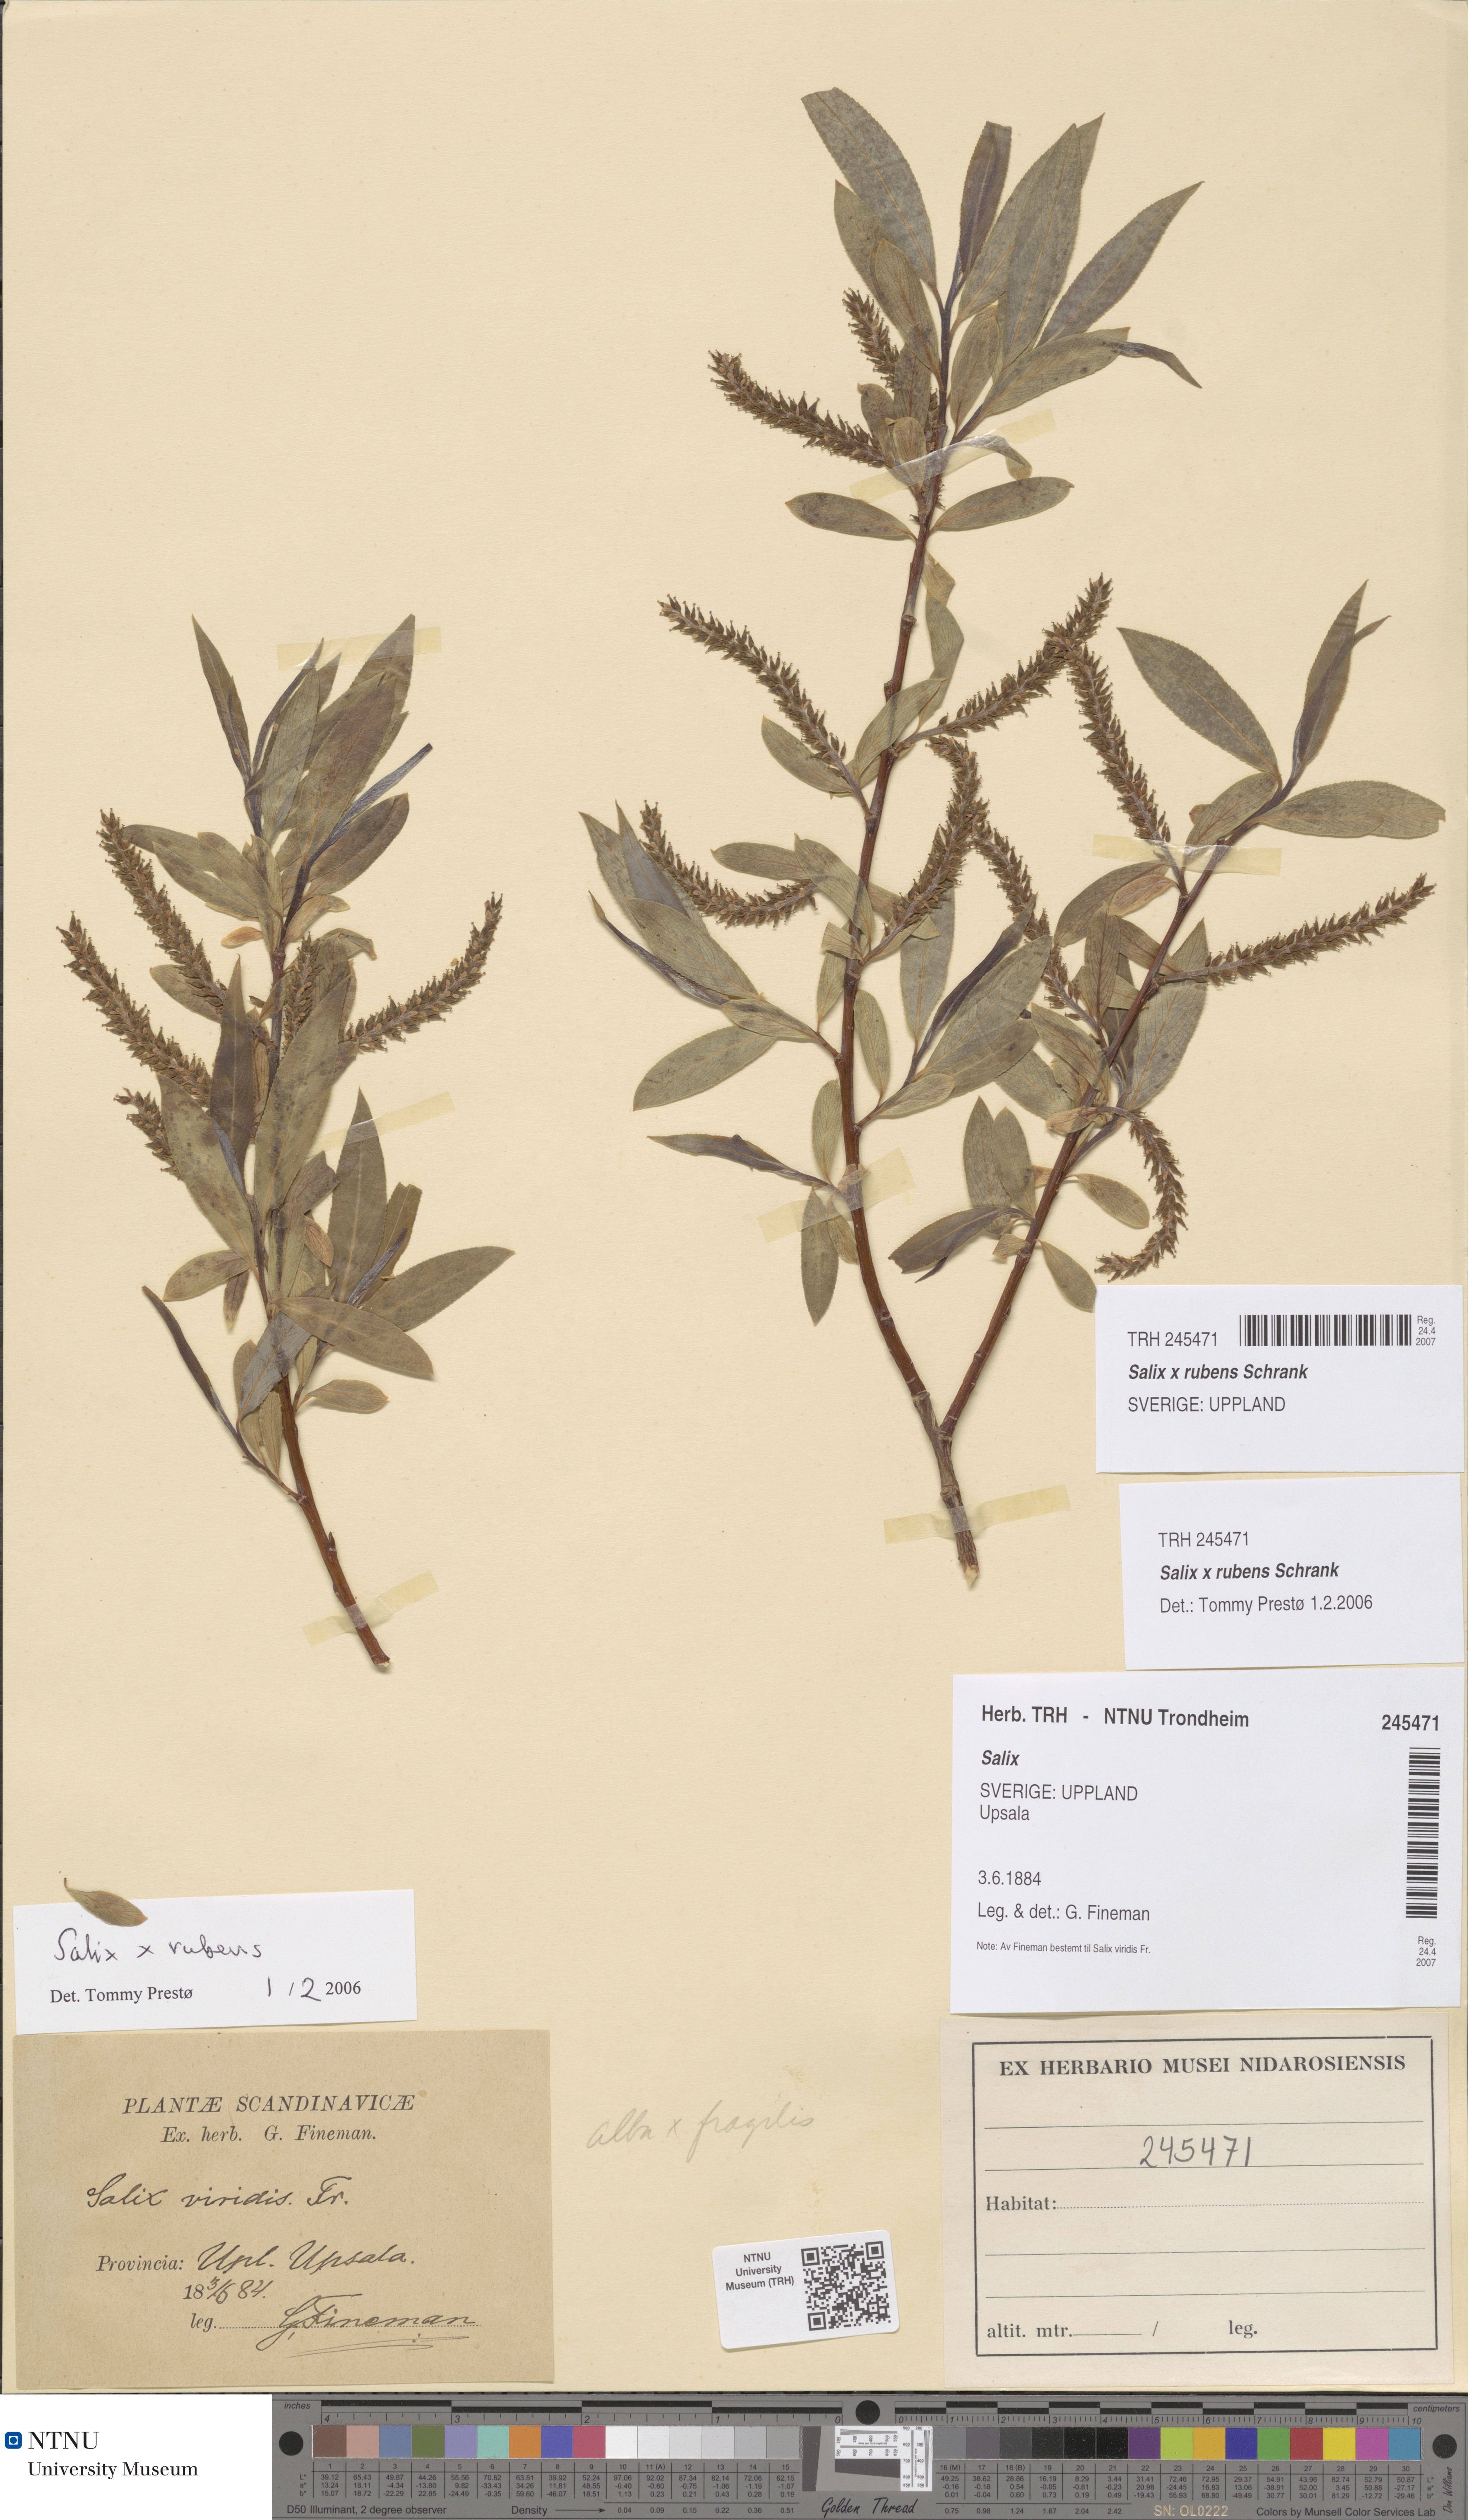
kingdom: Plantae
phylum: Tracheophyta
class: Magnoliopsida
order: Malpighiales
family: Salicaceae
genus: Salix
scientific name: Salix fragilis
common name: Crack willow
